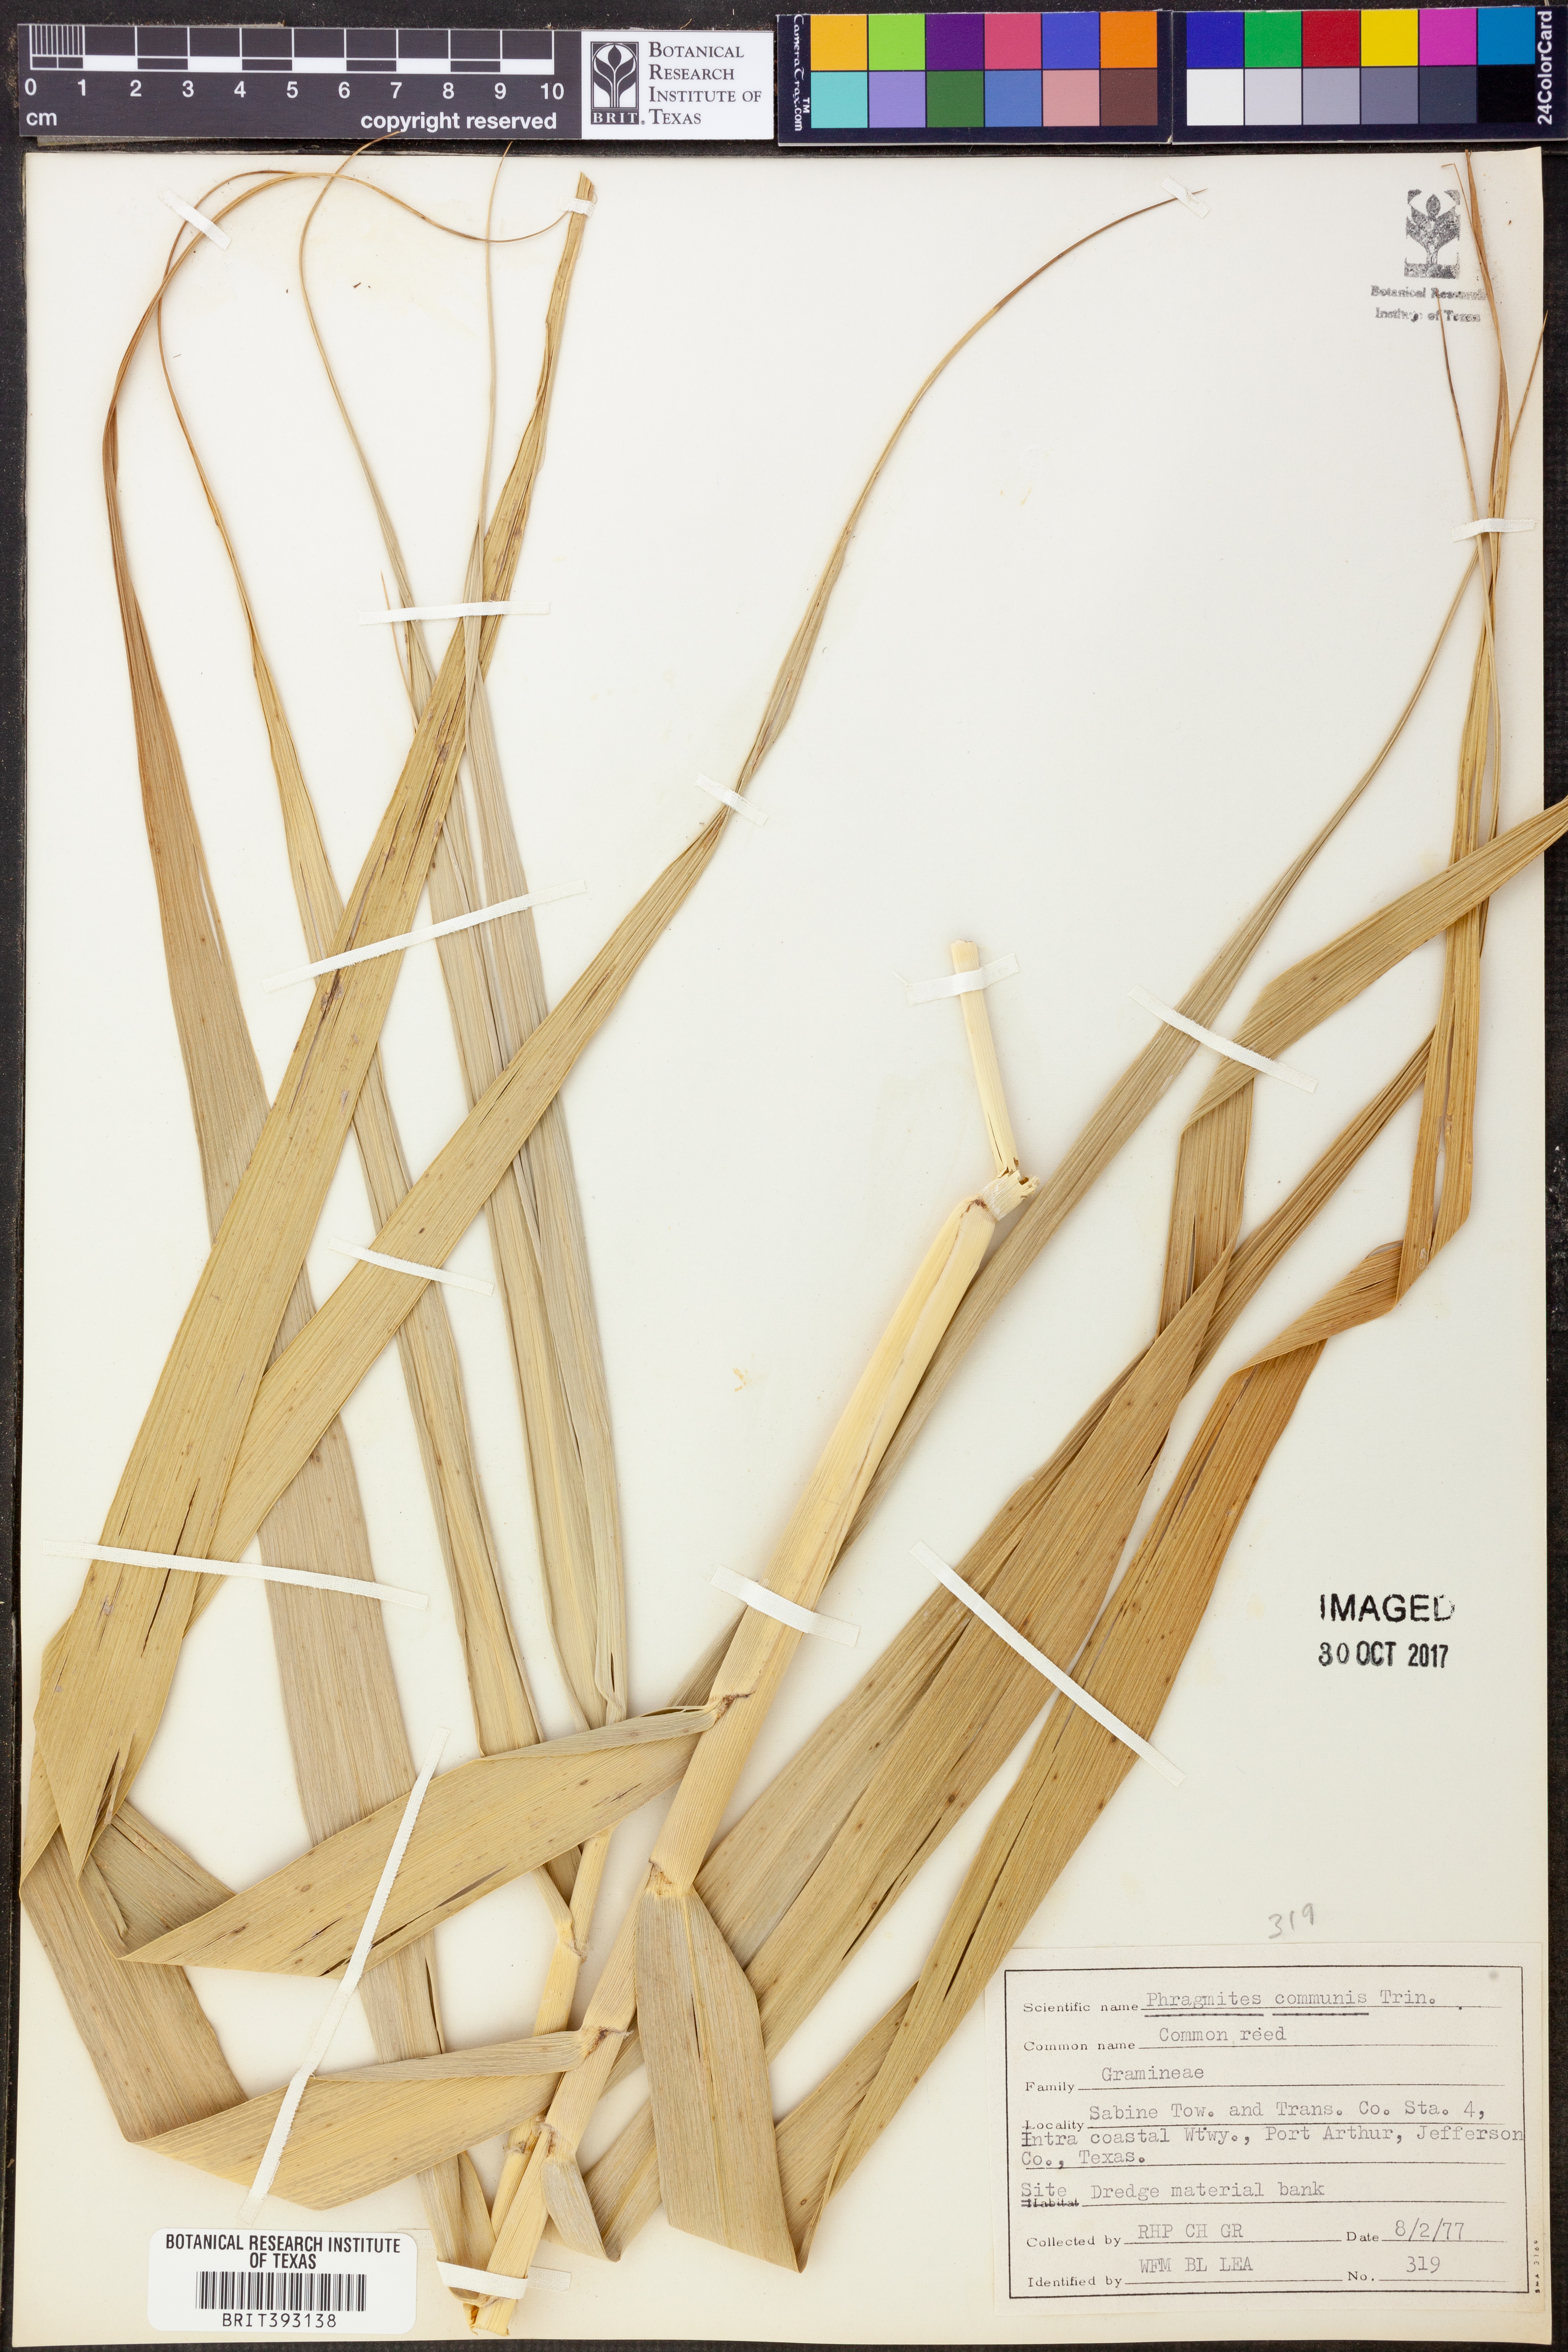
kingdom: Plantae
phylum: Tracheophyta
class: Liliopsida
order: Poales
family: Poaceae
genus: Phragmites
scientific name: Phragmites australis
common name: Common reed
